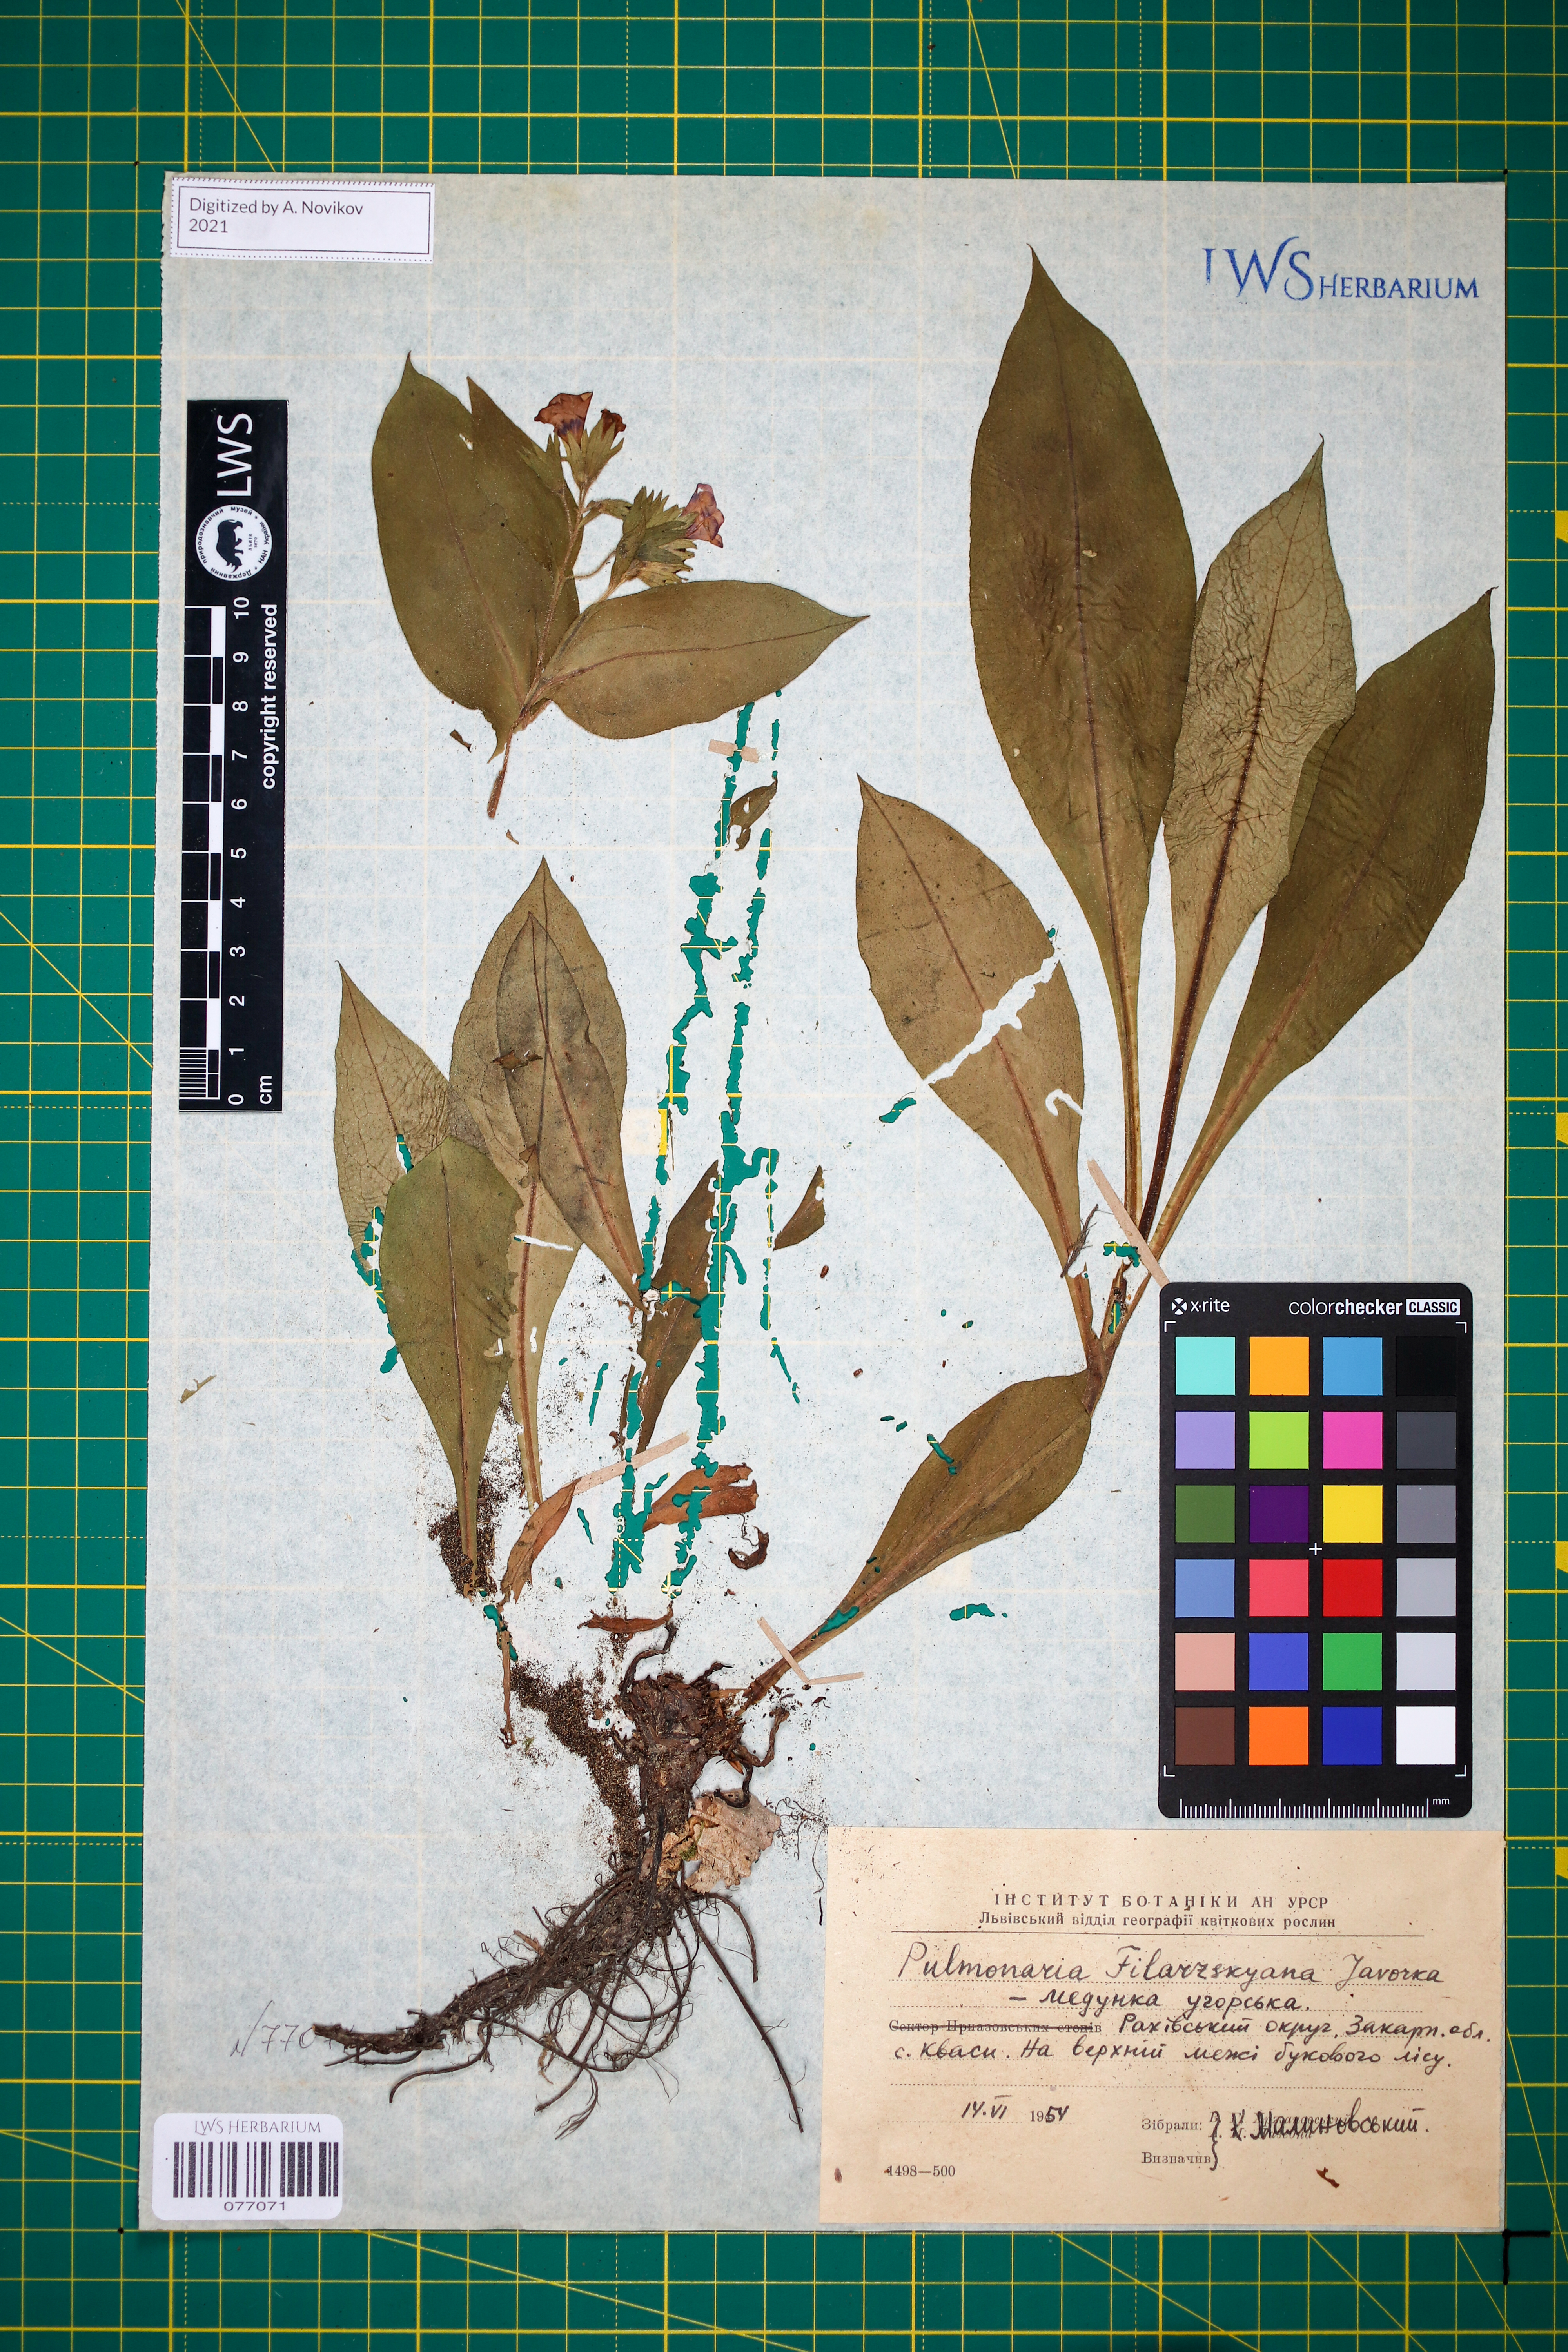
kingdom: Plantae
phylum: Tracheophyta
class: Magnoliopsida
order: Boraginales
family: Boraginaceae
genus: Pulmonaria
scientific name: Pulmonaria filarszkyana
